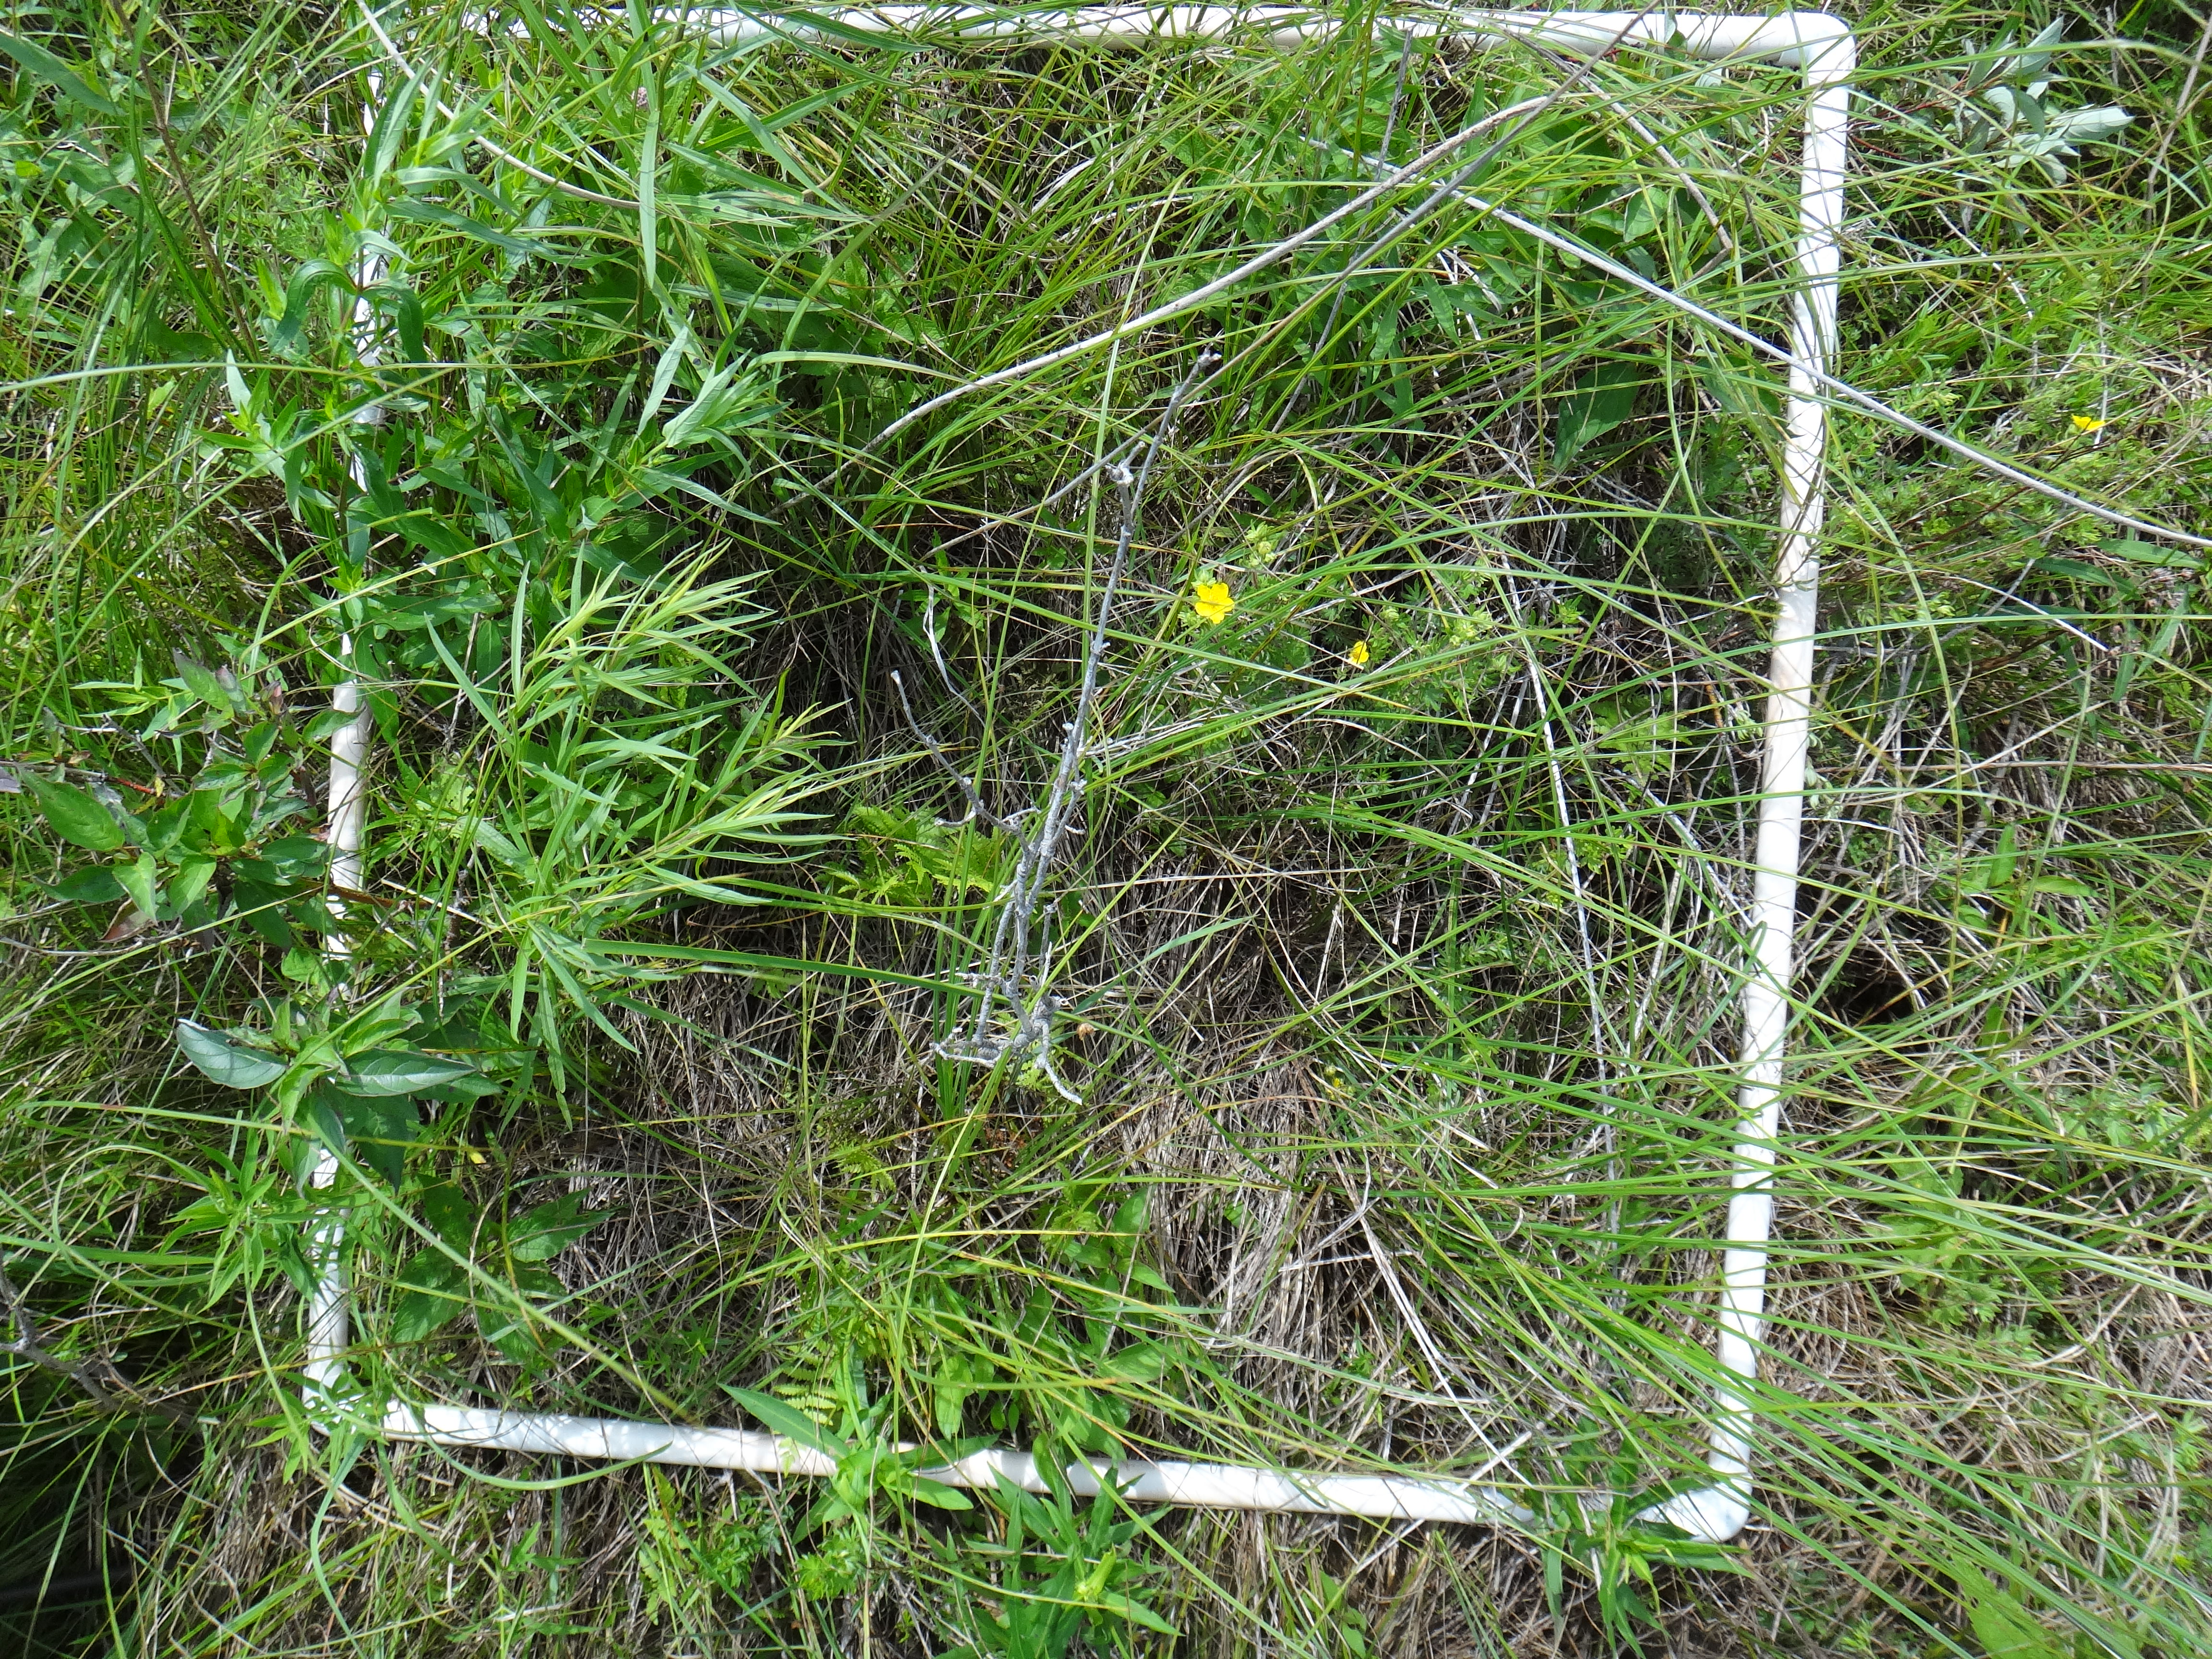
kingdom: Plantae
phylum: Tracheophyta
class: Magnoliopsida
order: Fabales
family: Fabaceae
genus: Lathyrus
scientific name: Lathyrus palustris
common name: Marsh pea
